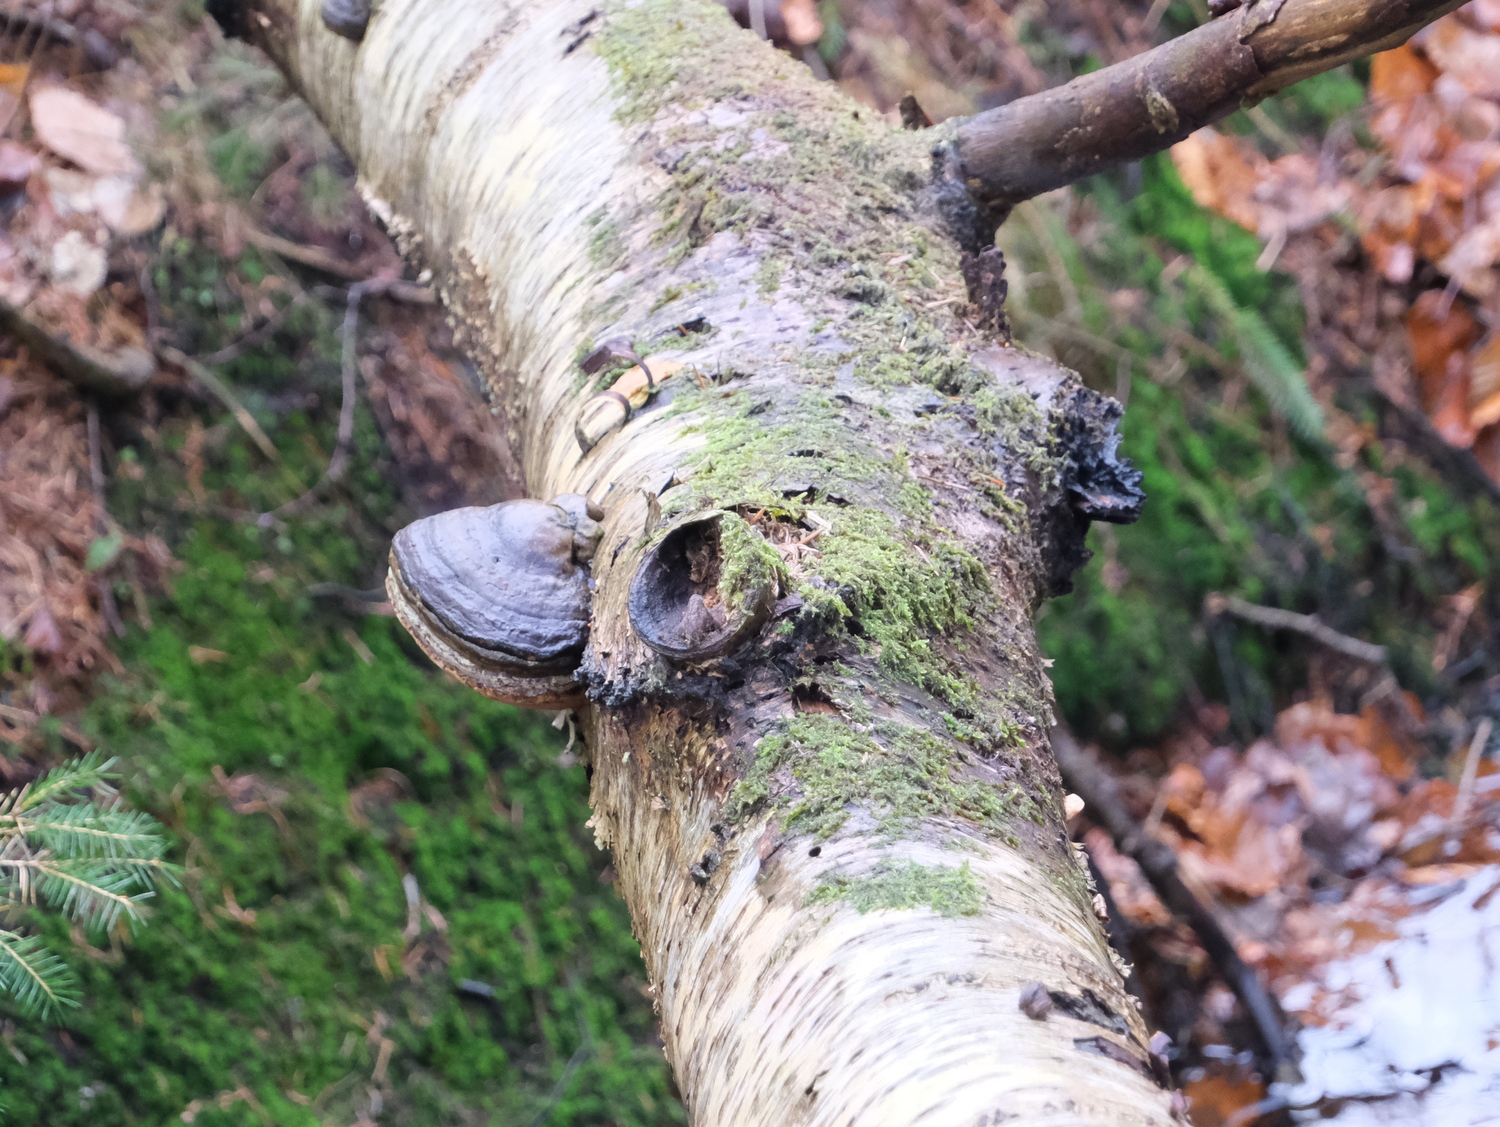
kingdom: Fungi
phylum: Basidiomycota
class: Agaricomycetes
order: Polyporales
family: Polyporaceae
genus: Fomes
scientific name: Fomes fomentarius
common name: tøndersvamp
